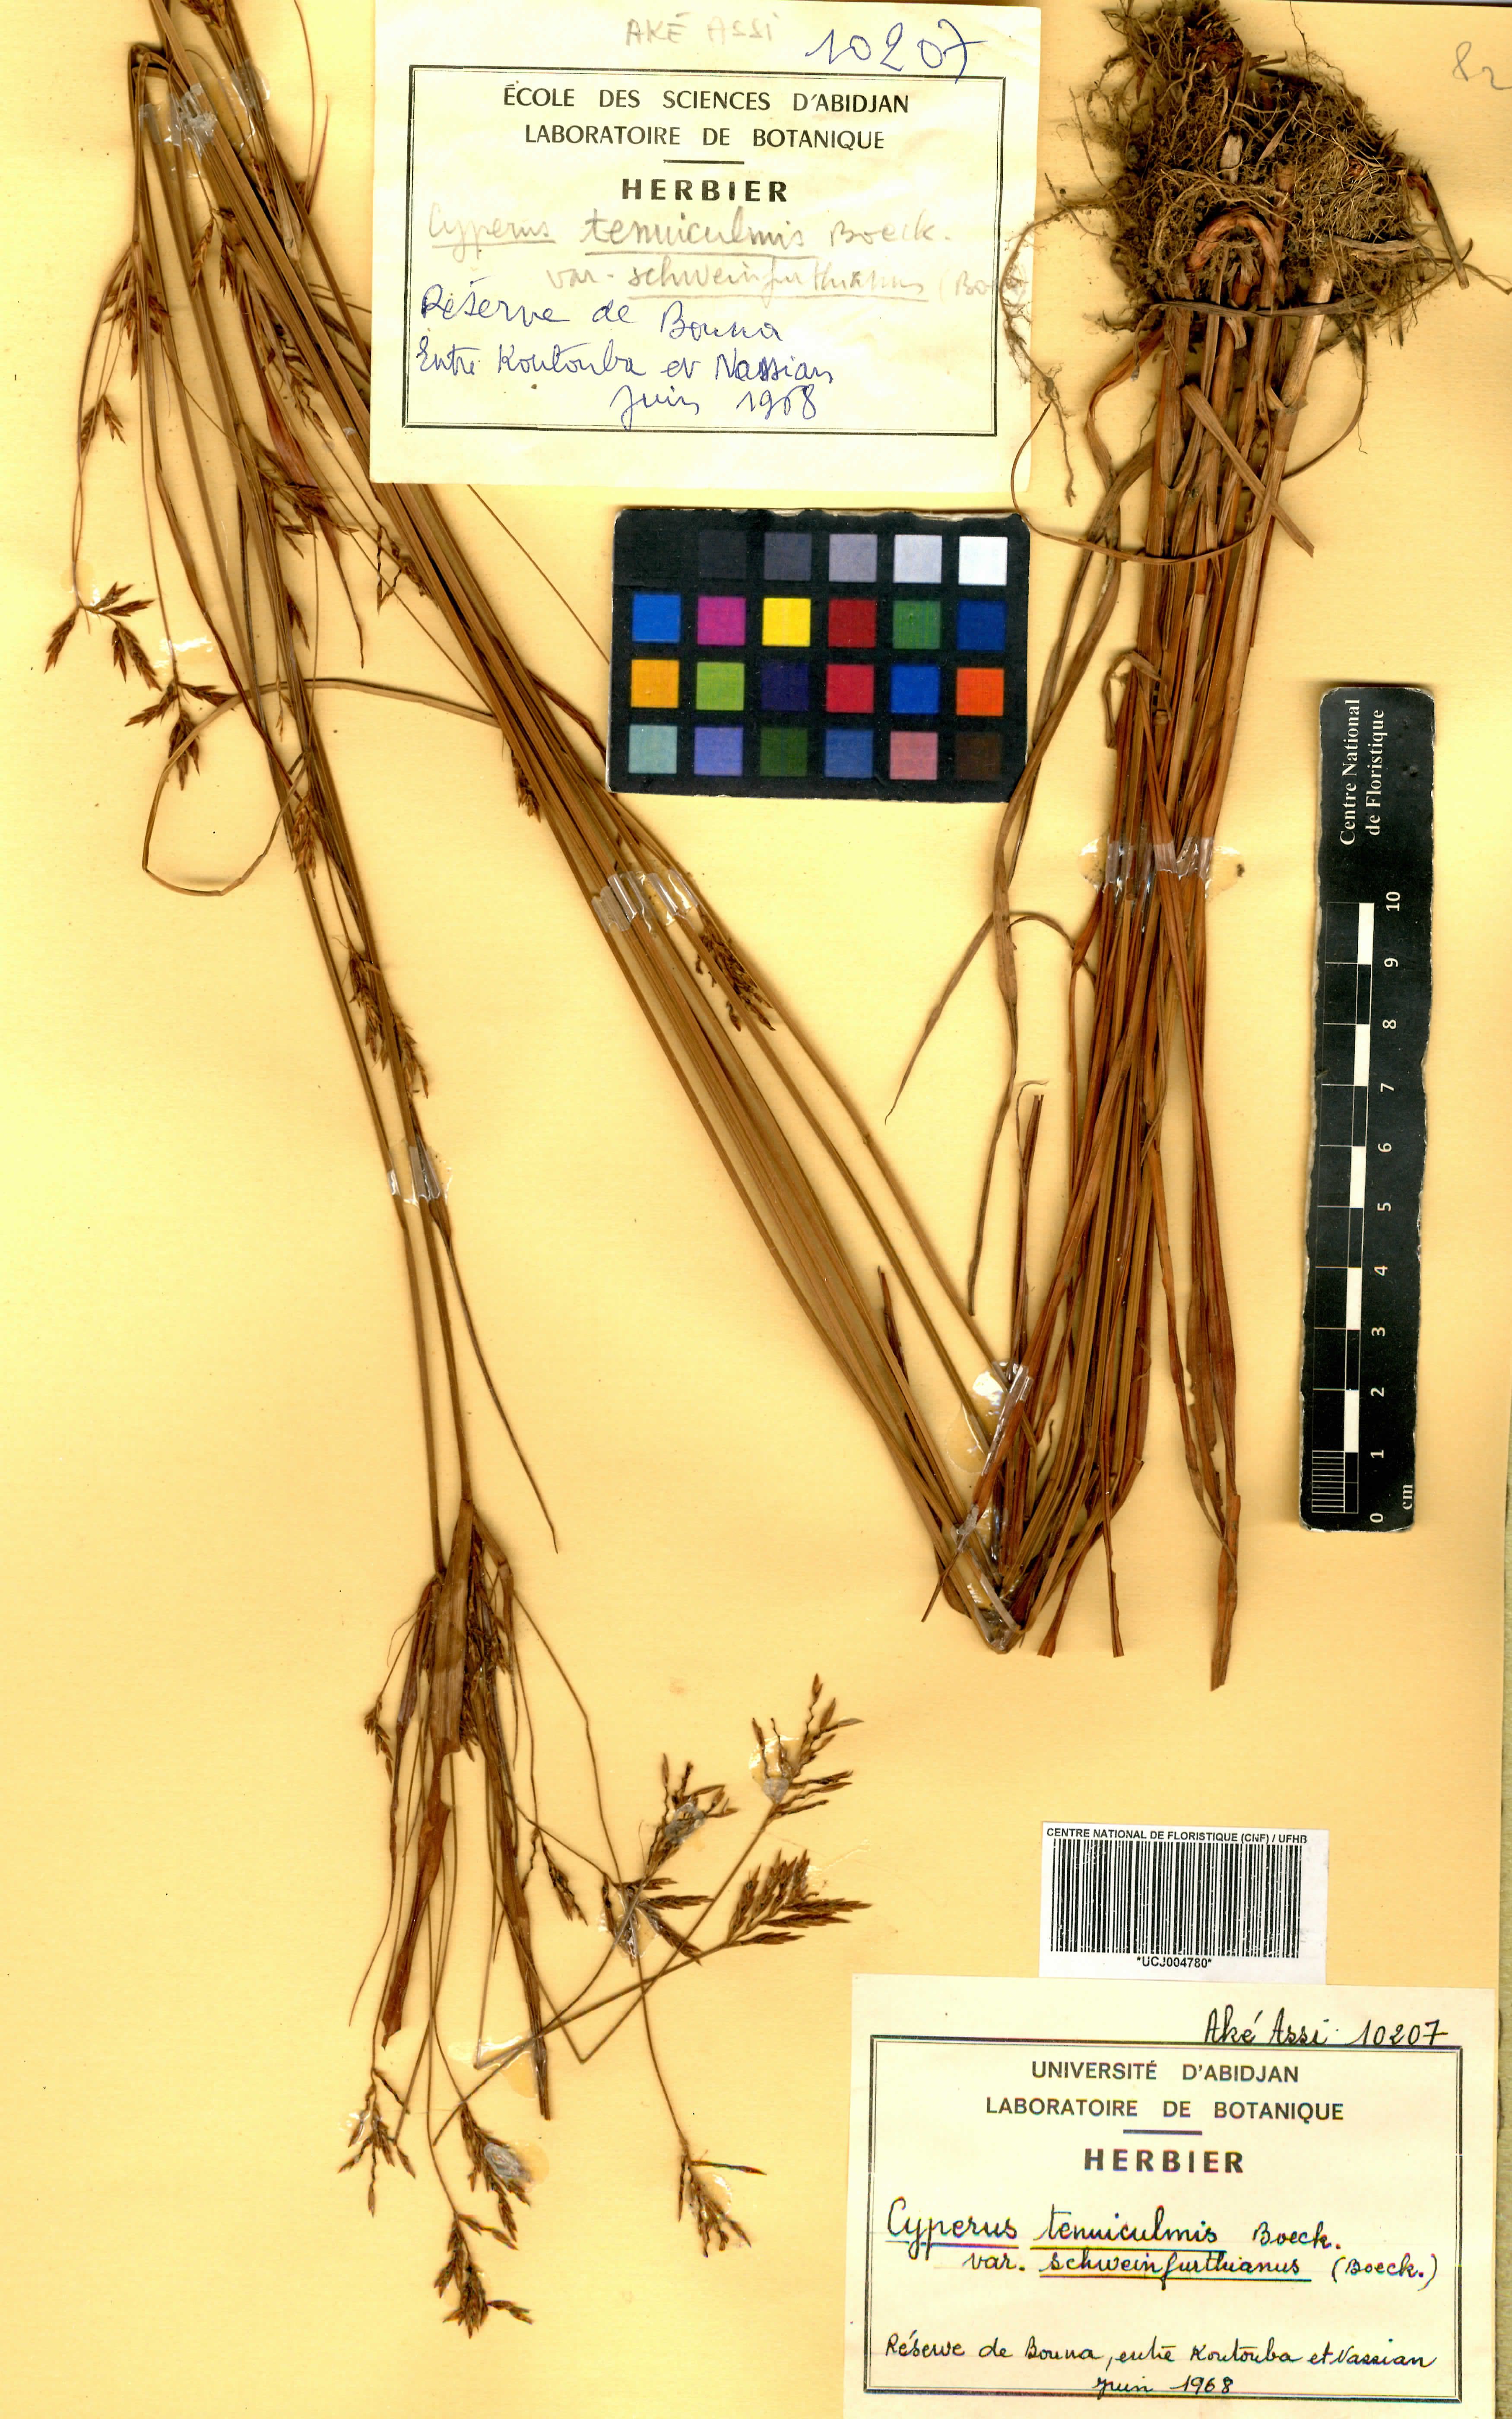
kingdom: Plantae
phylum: Tracheophyta
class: Liliopsida
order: Poales
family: Cyperaceae
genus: Cyperus
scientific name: Cyperus tenuiculmis
